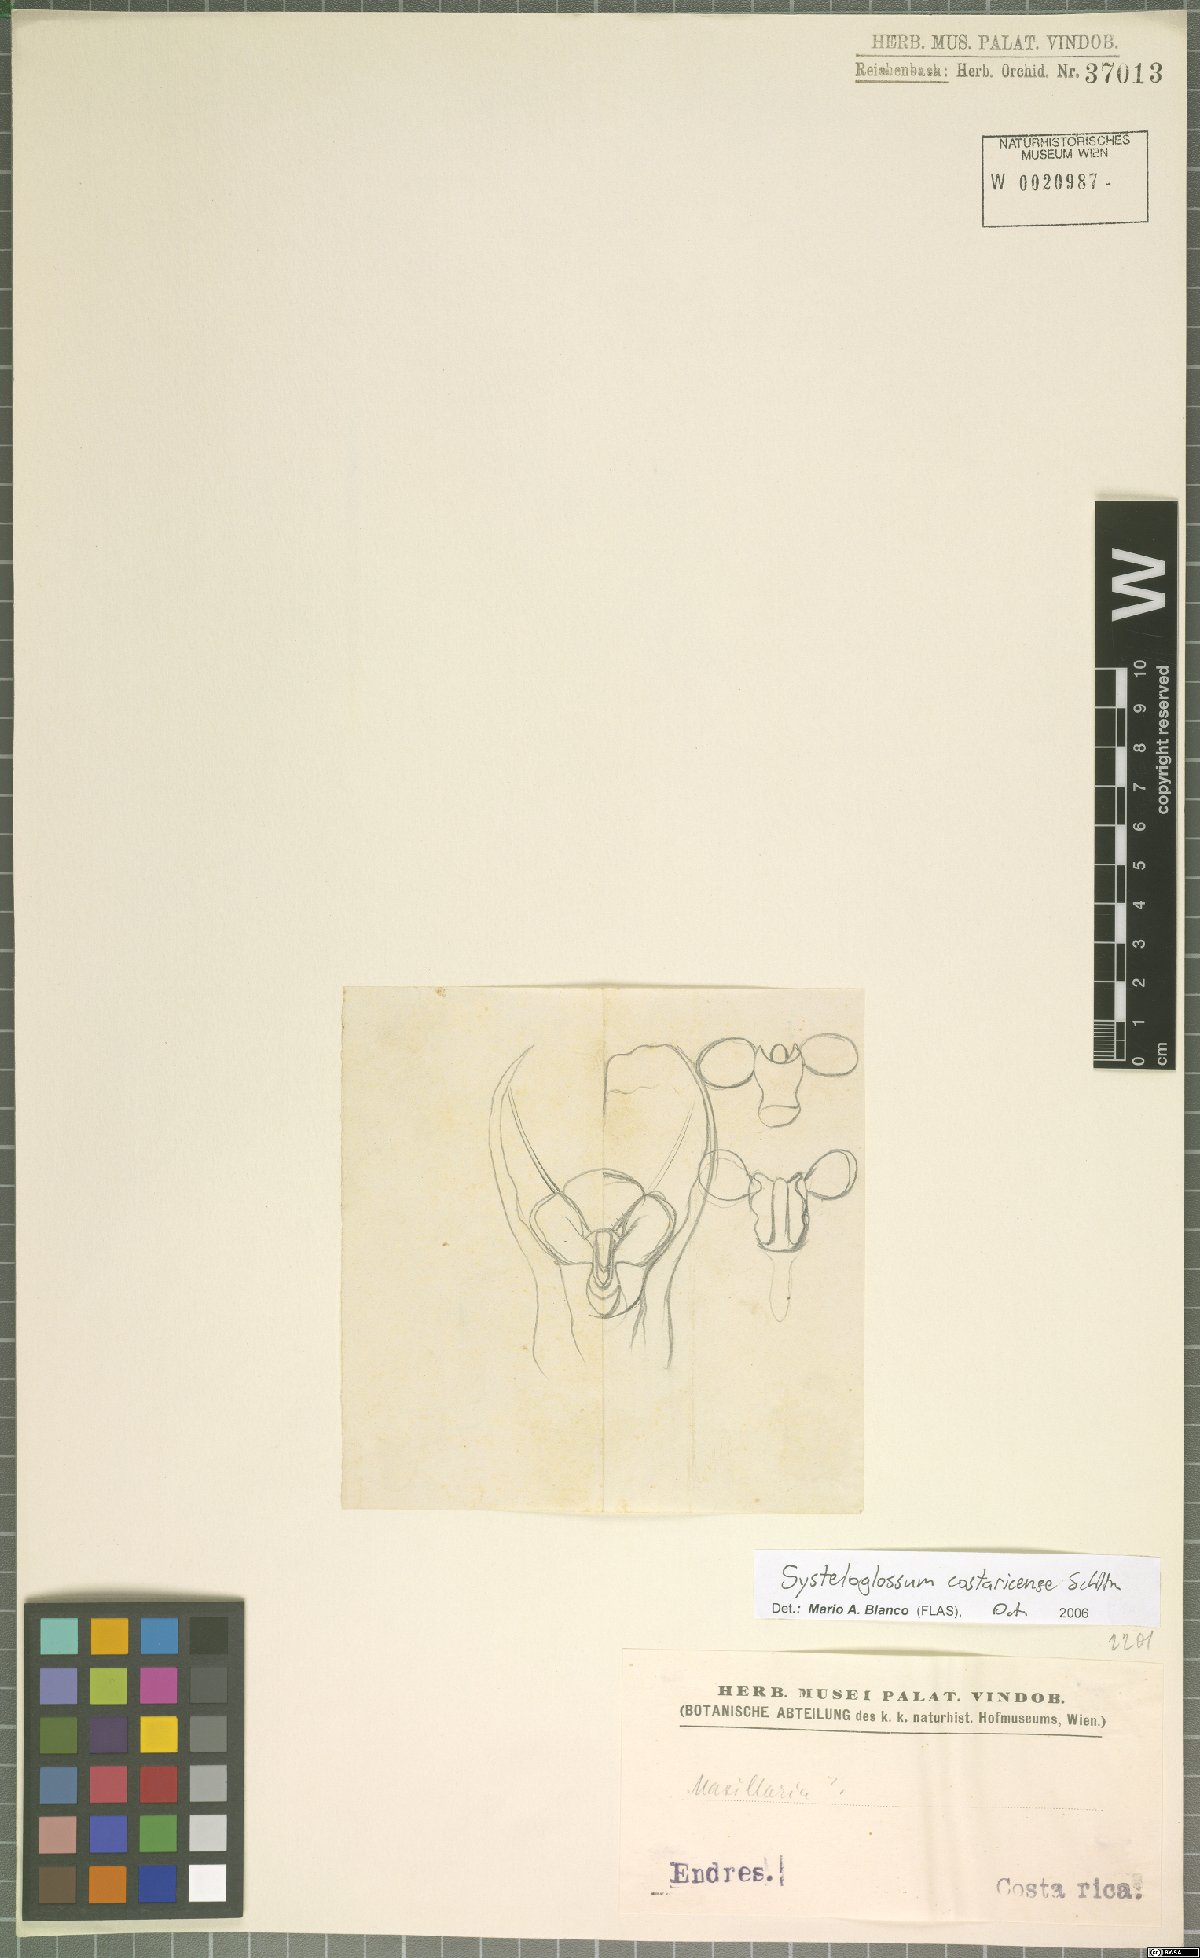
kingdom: Plantae
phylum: Tracheophyta
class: Liliopsida
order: Asparagales
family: Orchidaceae
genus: Systeloglossum
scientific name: Systeloglossum costaricense
